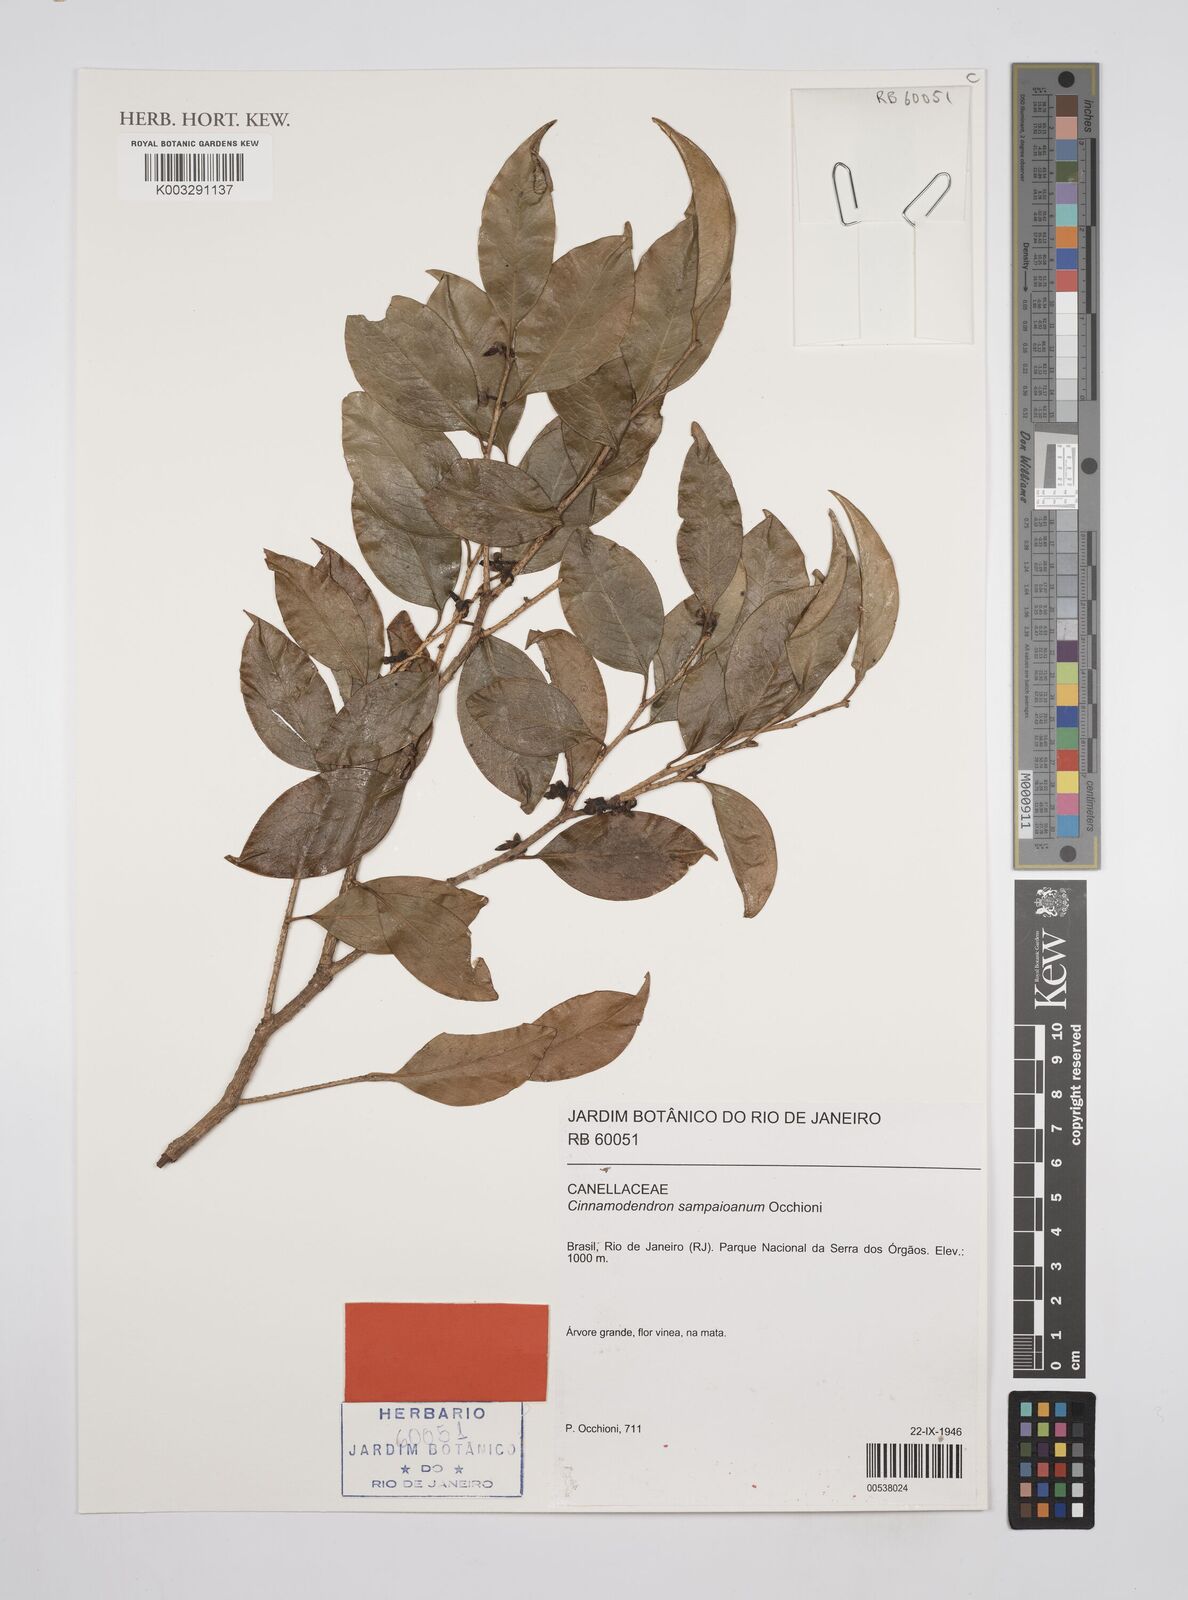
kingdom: Plantae
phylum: Tracheophyta
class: Magnoliopsida
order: Canellales
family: Canellaceae
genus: Cinnamodendron
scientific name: Cinnamodendron sampaioanum
